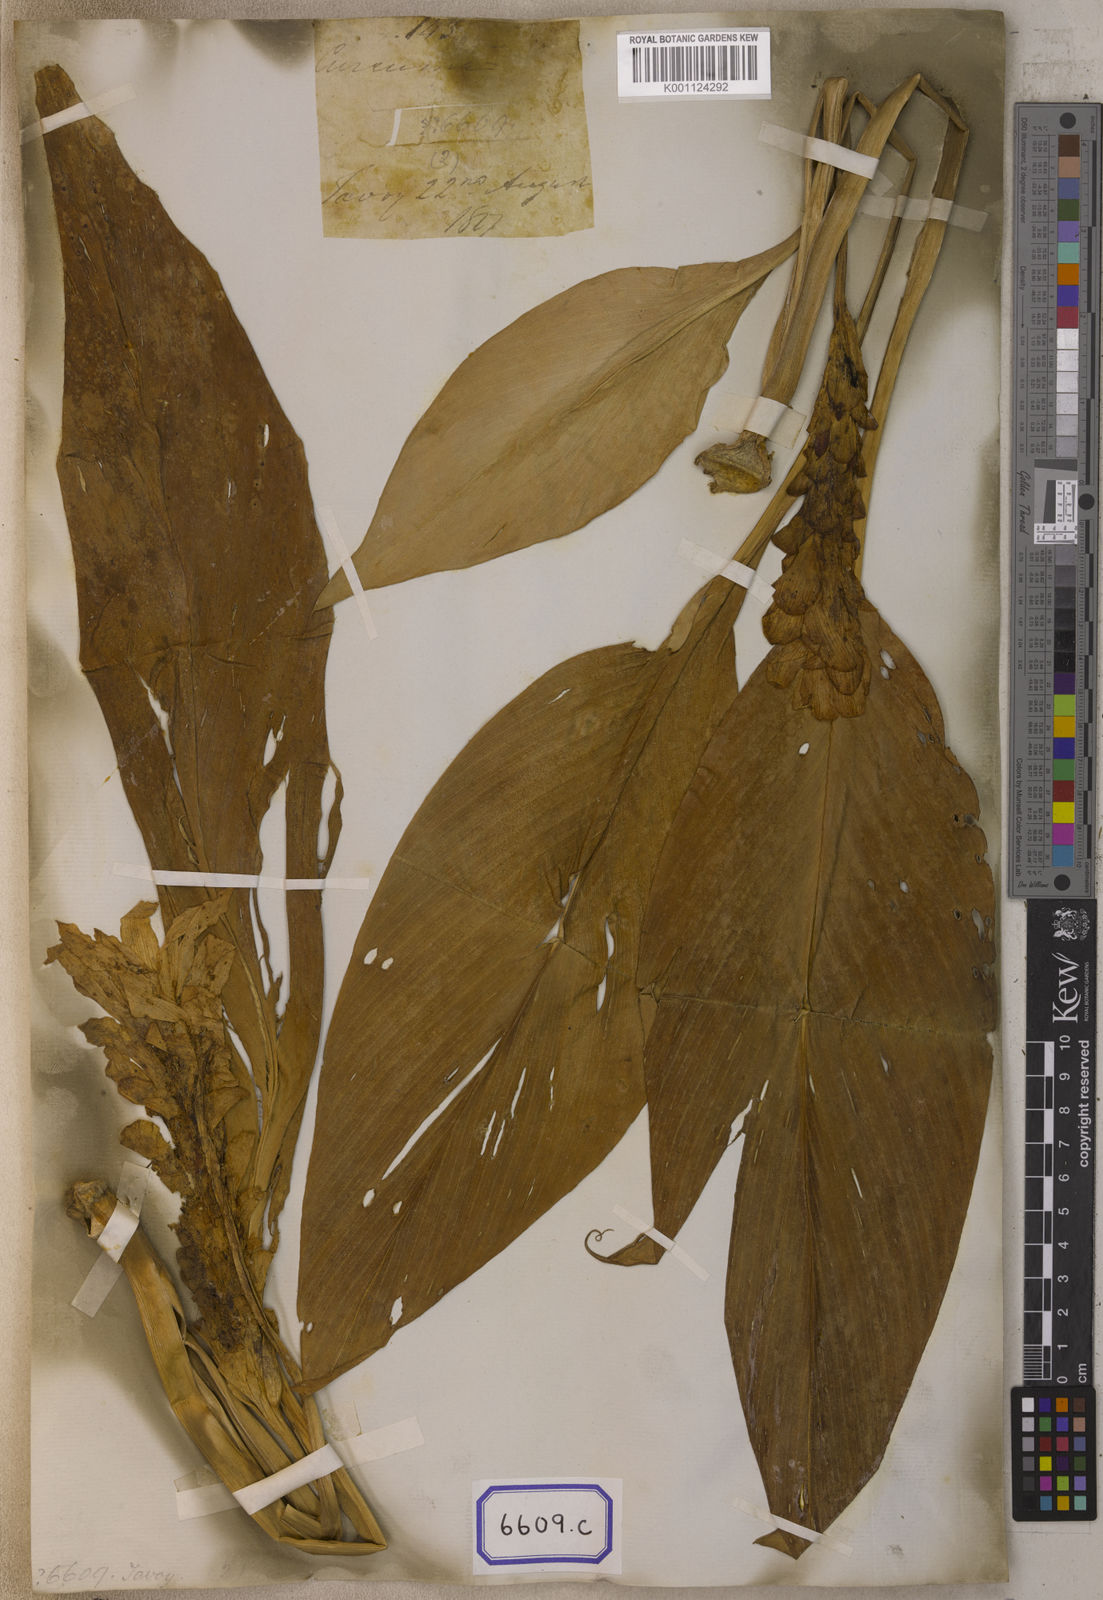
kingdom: Plantae
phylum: Tracheophyta
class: Liliopsida
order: Zingiberales
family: Zingiberaceae
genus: Curcuma
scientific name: Curcuma comosa
